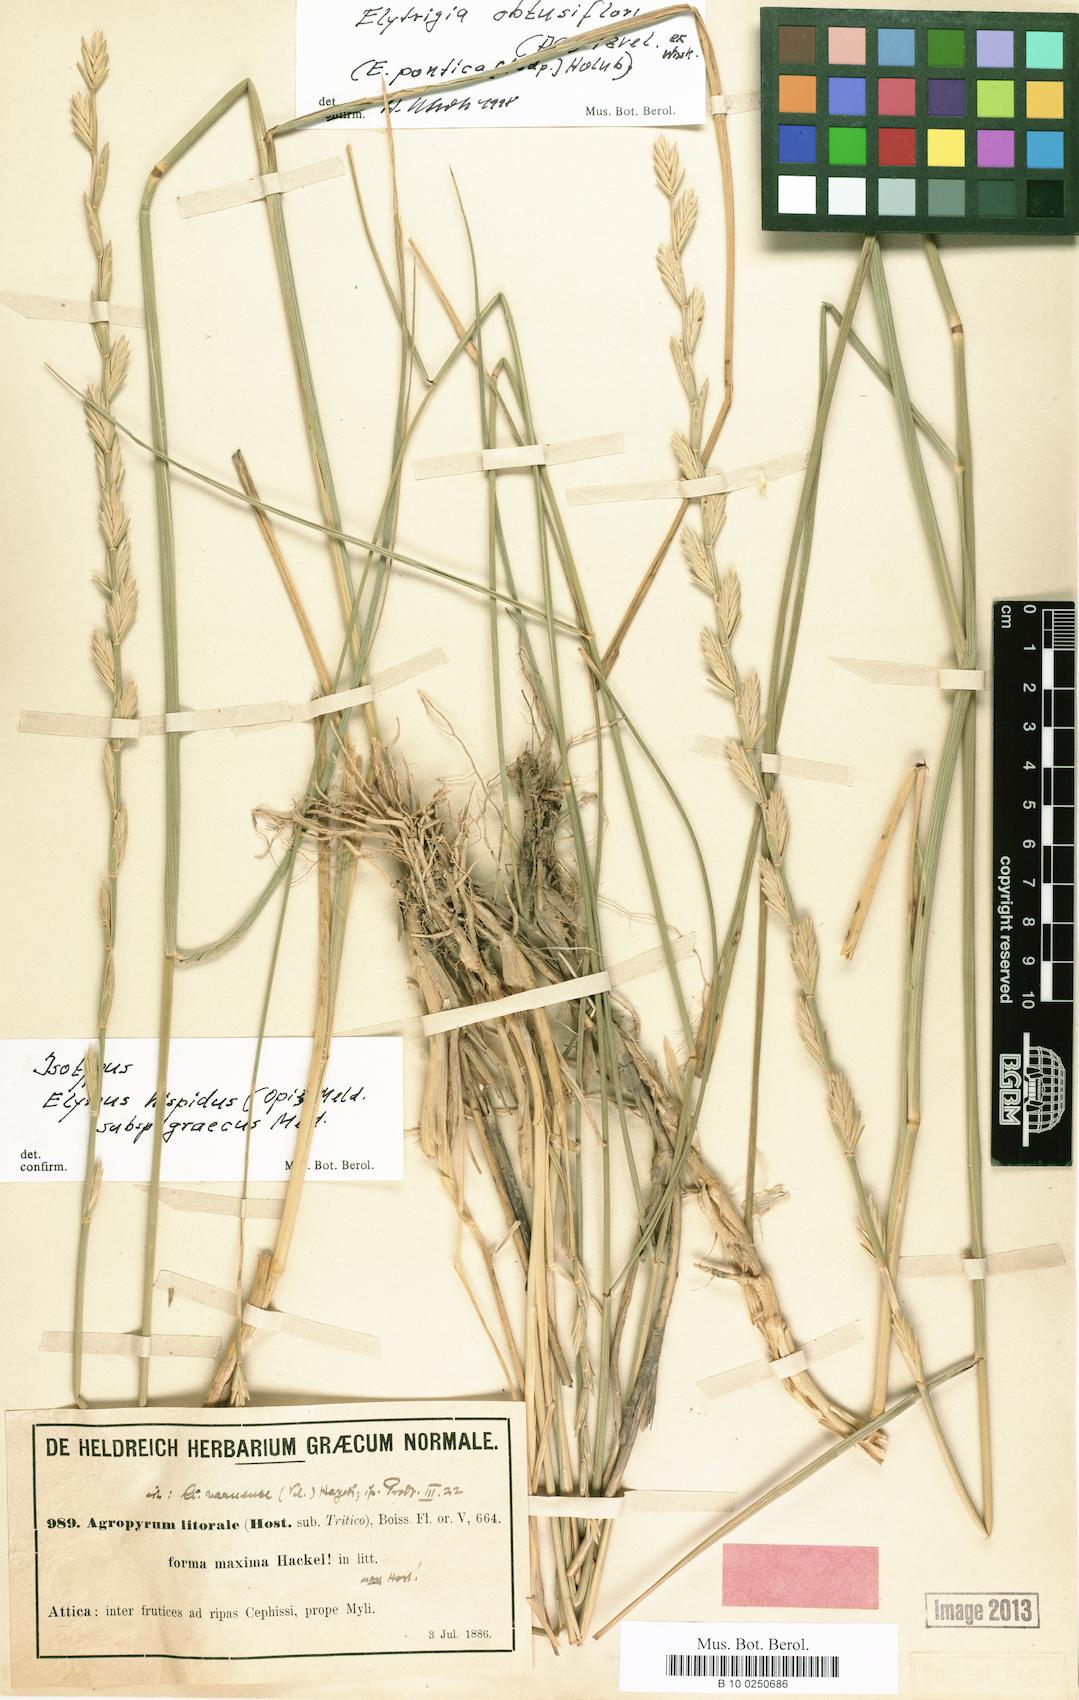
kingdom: Plantae
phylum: Tracheophyta
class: Liliopsida
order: Poales
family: Poaceae
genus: Thinopyrum
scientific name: Thinopyrum intermedium
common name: Intermediate wheatgrass
